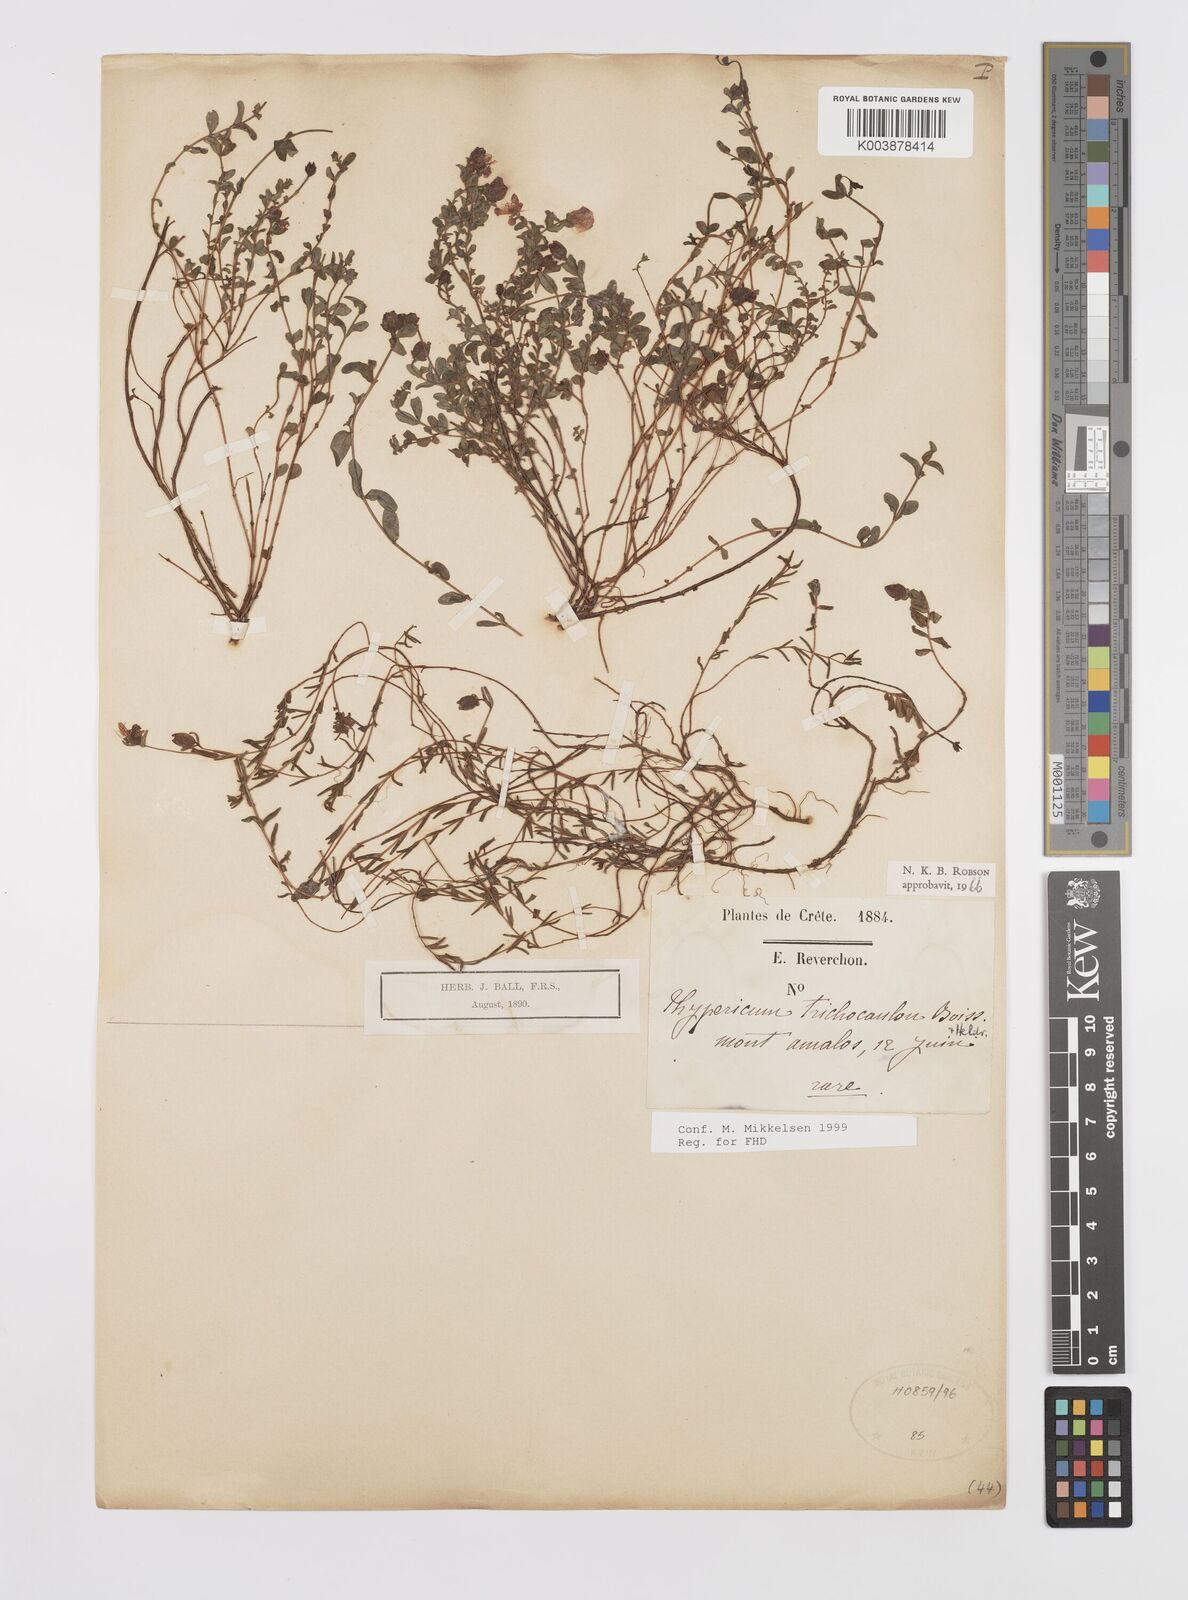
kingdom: Plantae
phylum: Tracheophyta
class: Magnoliopsida
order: Malpighiales
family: Hypericaceae
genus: Hypericum
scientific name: Hypericum trichocaulon
